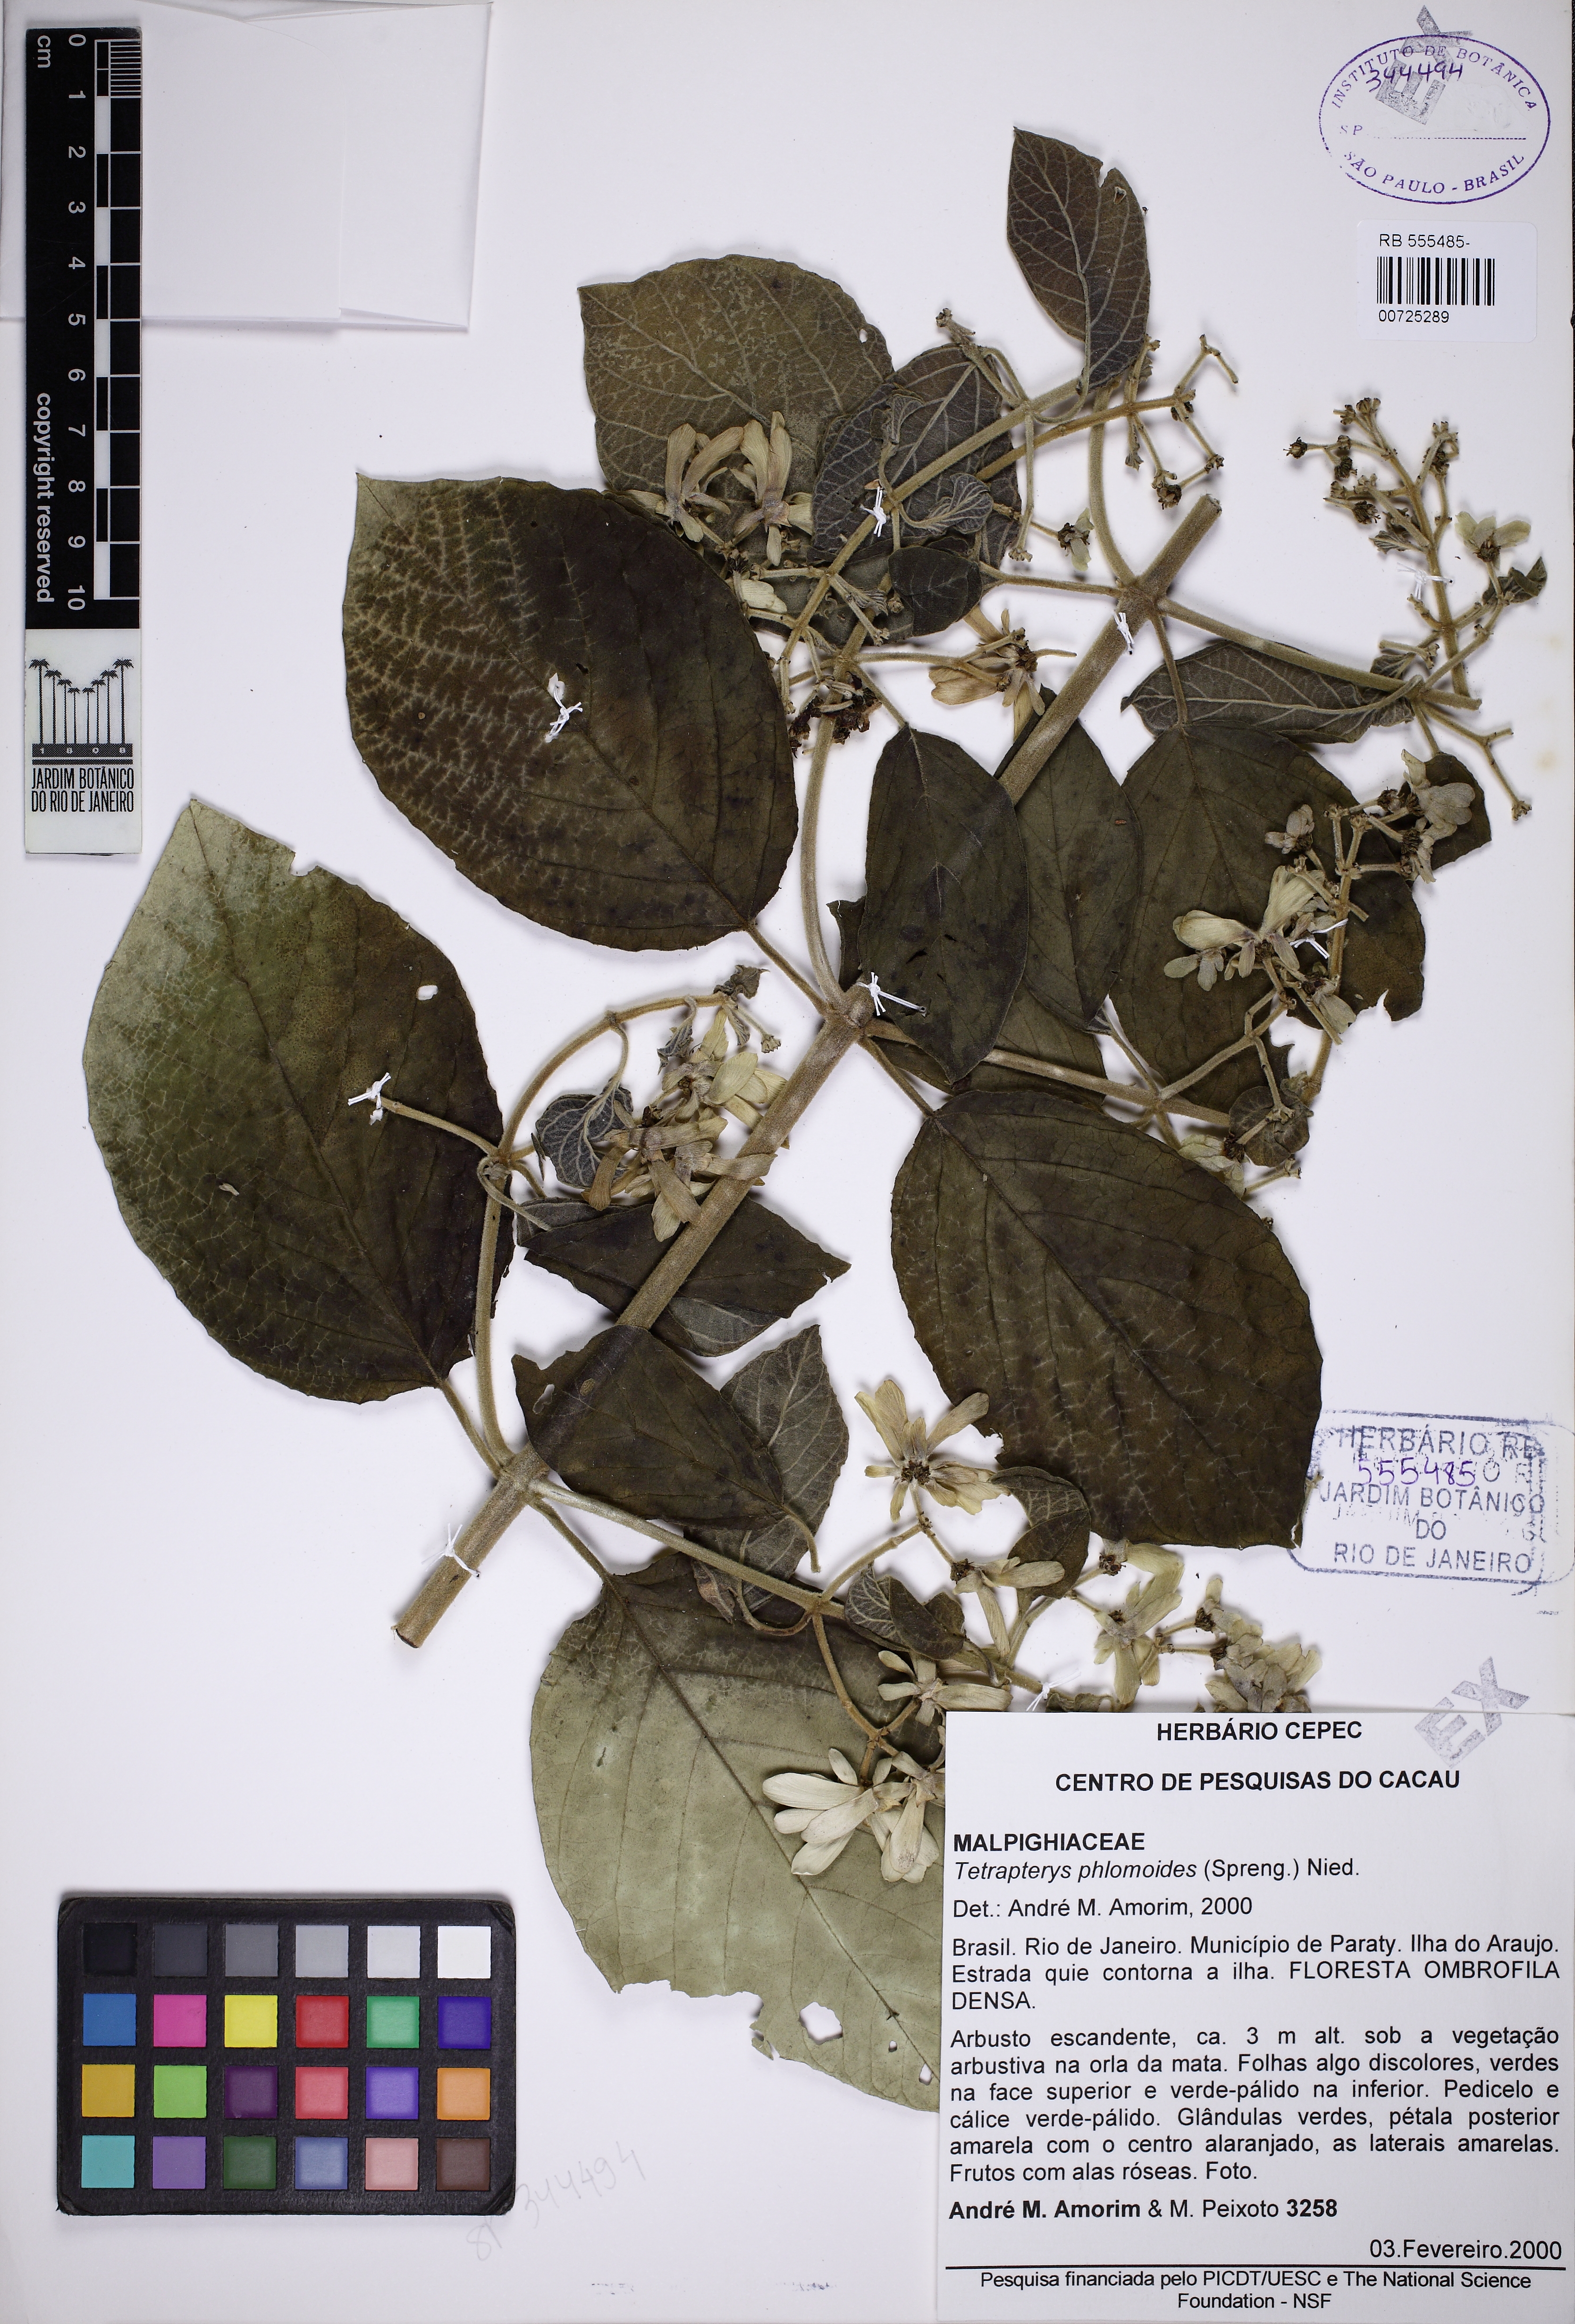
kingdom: Plantae
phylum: Tracheophyta
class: Magnoliopsida
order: Malpighiales
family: Malpighiaceae
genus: Tetrapterys
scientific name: Tetrapterys phlomoides
